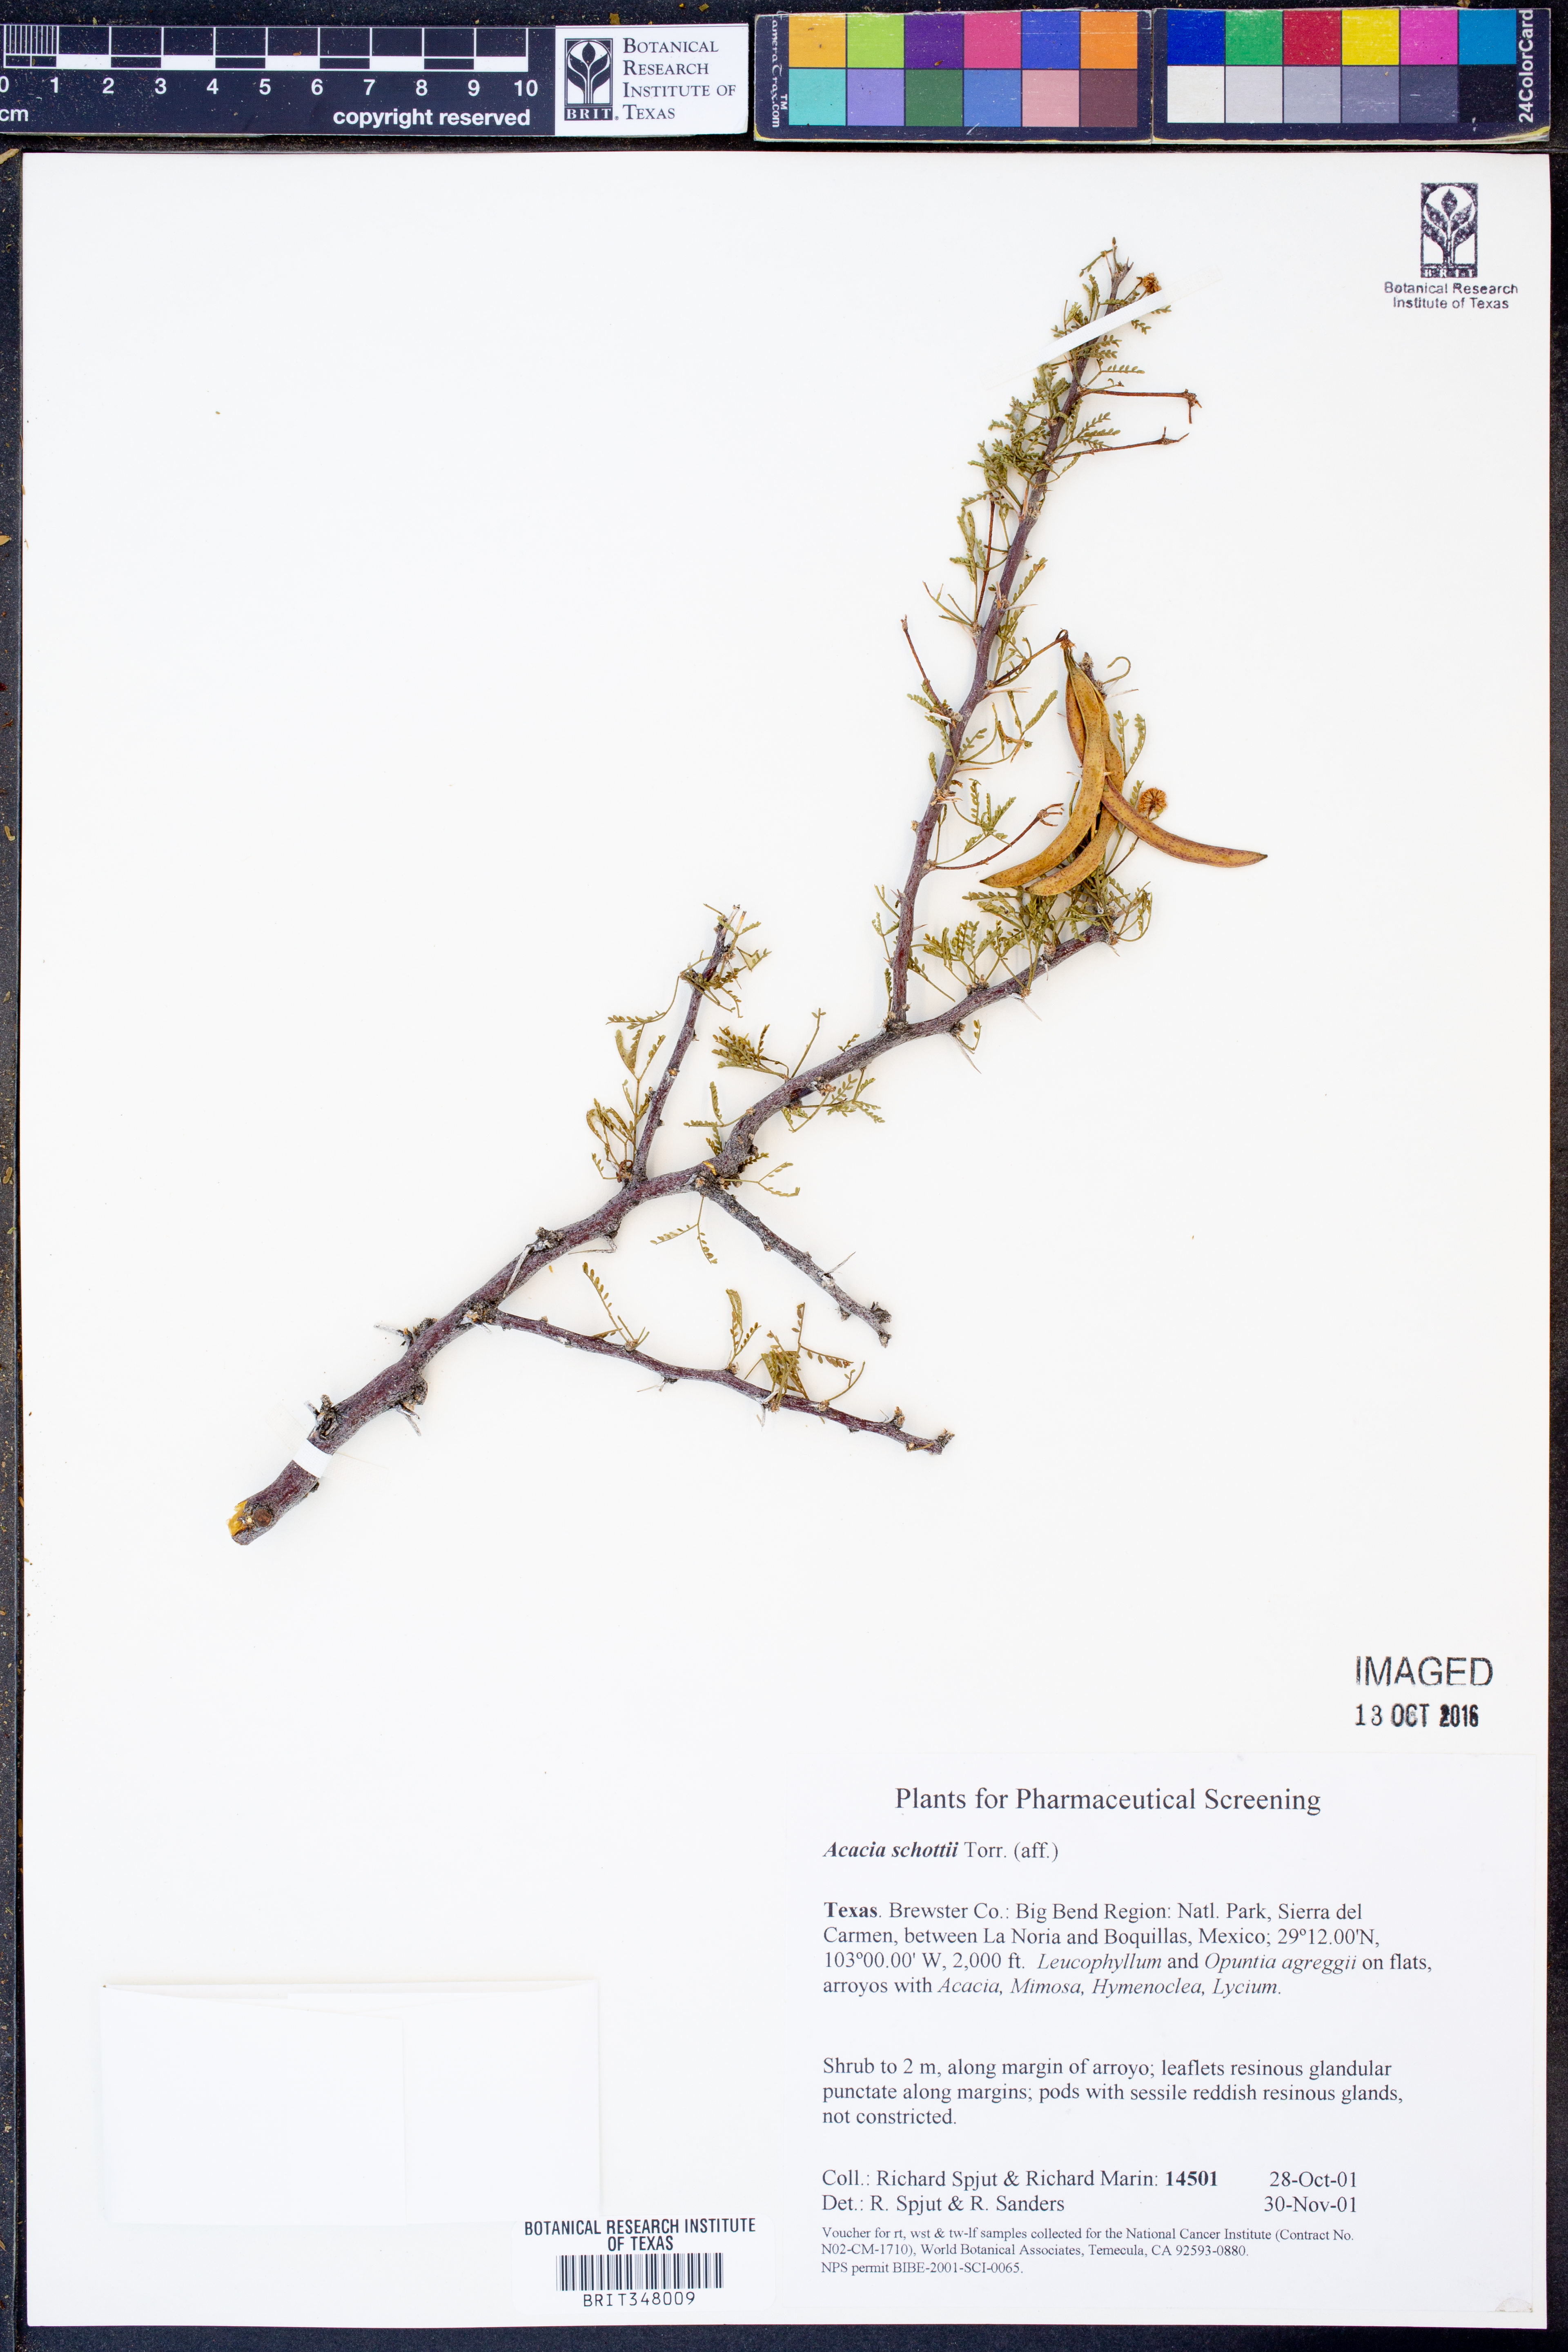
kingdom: Plantae
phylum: Tracheophyta
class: Magnoliopsida
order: Fabales
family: Fabaceae
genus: Vachellia
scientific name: Vachellia schottii
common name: Schott acacia
